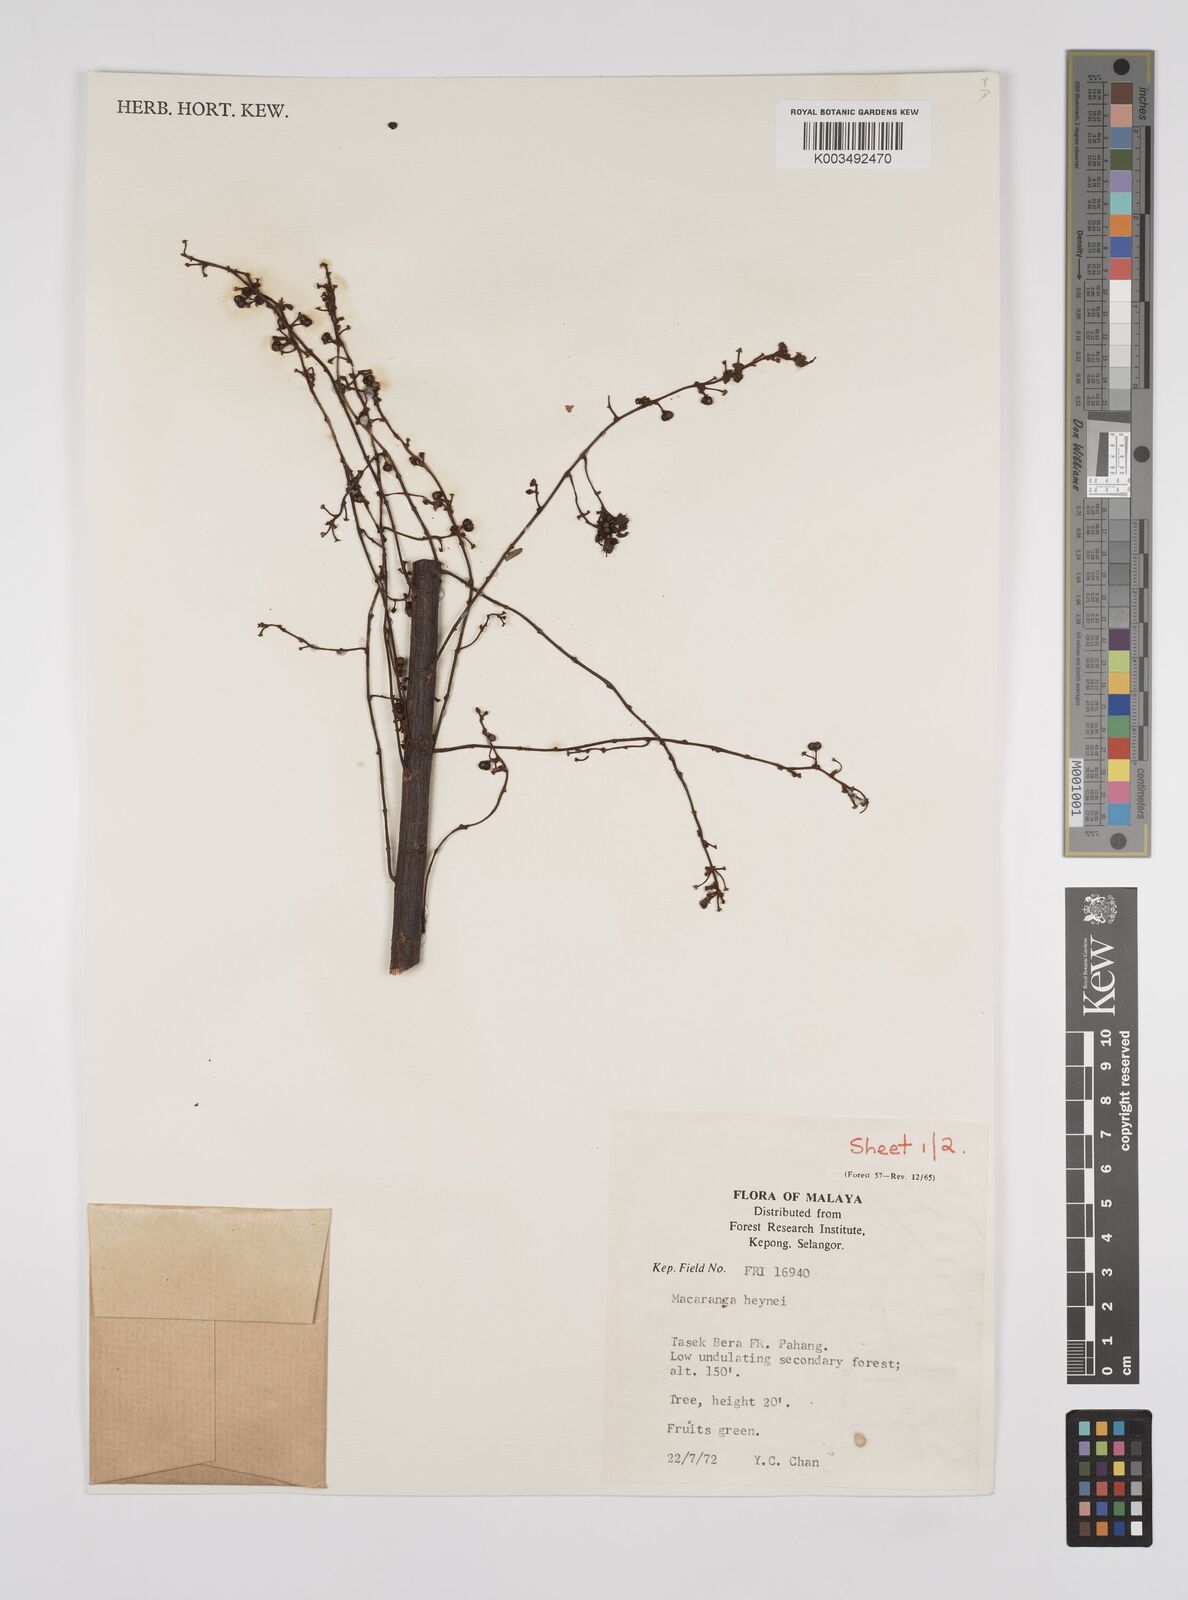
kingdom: Plantae
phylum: Tracheophyta
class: Magnoliopsida
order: Malpighiales
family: Euphorbiaceae
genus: Macaranga
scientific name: Macaranga heynei
